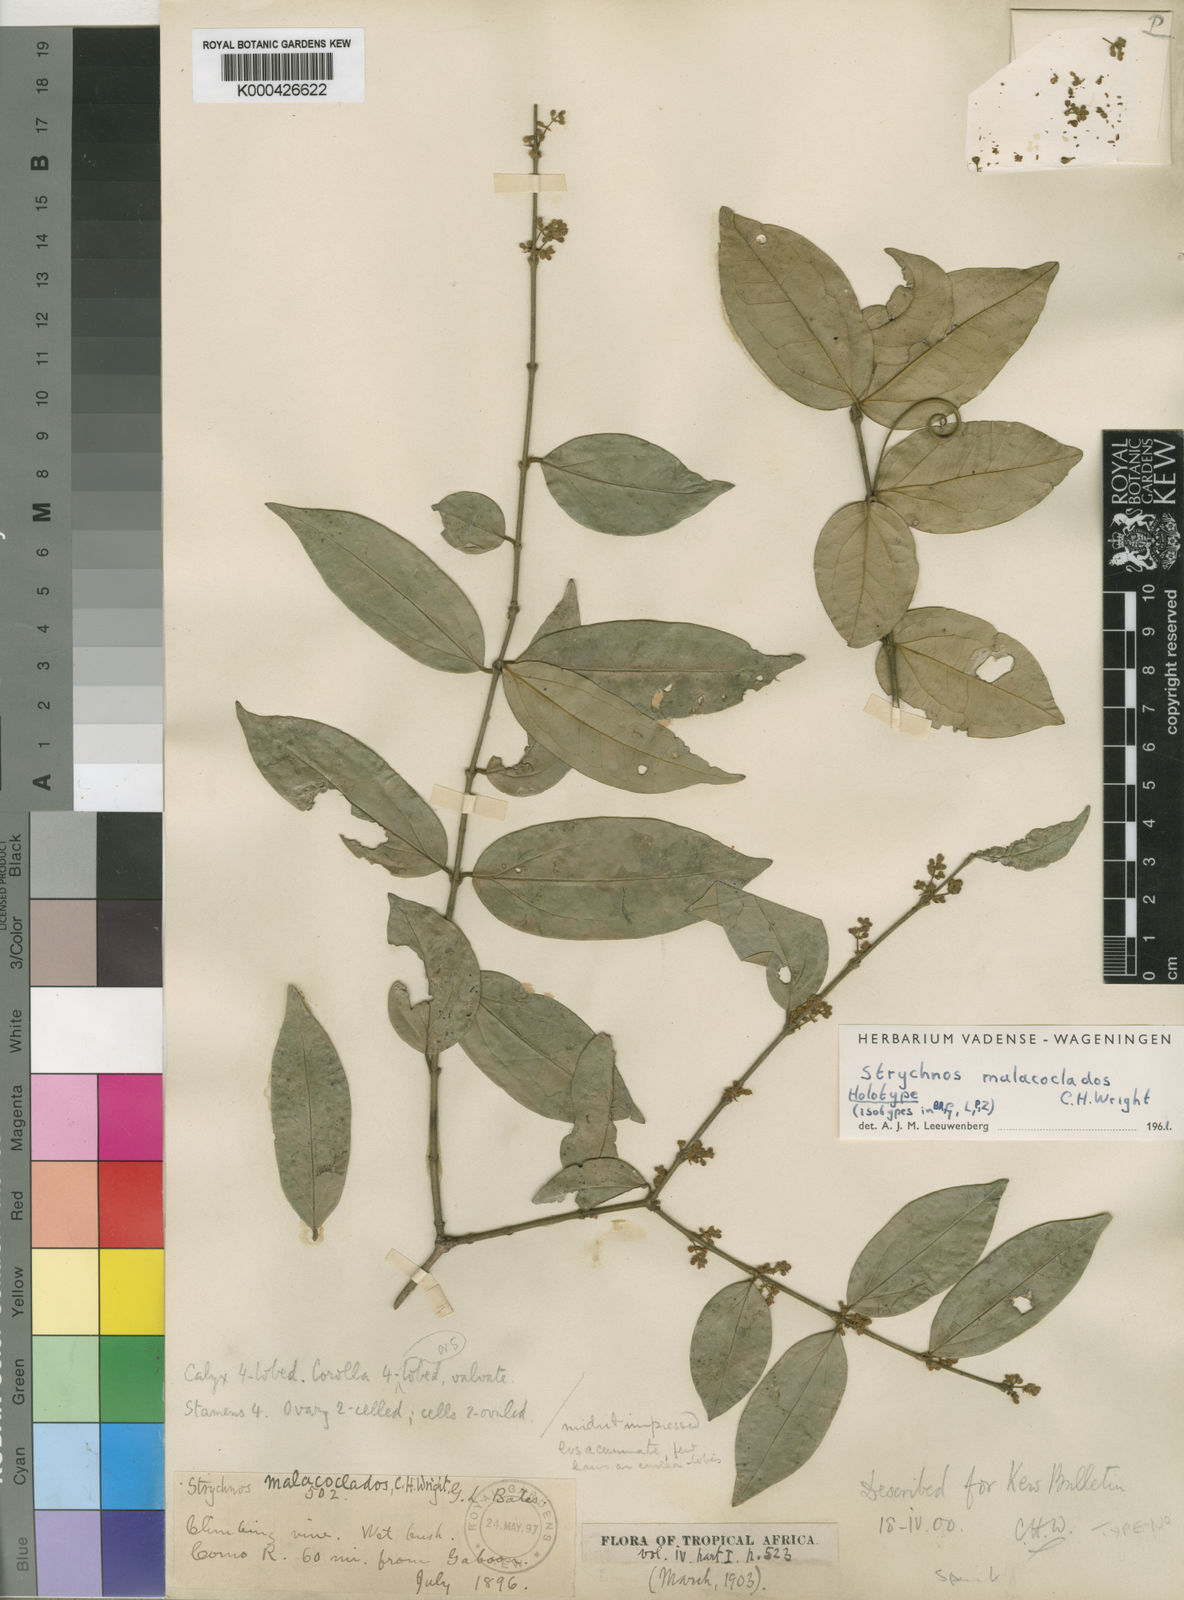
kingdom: Plantae
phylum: Tracheophyta
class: Magnoliopsida
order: Gentianales
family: Loganiaceae
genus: Strychnos
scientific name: Strychnos malacoclados
